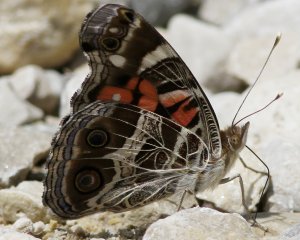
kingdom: Animalia
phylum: Arthropoda
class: Insecta
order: Lepidoptera
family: Nymphalidae
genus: Vanessa
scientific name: Vanessa virginiensis
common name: American Lady
